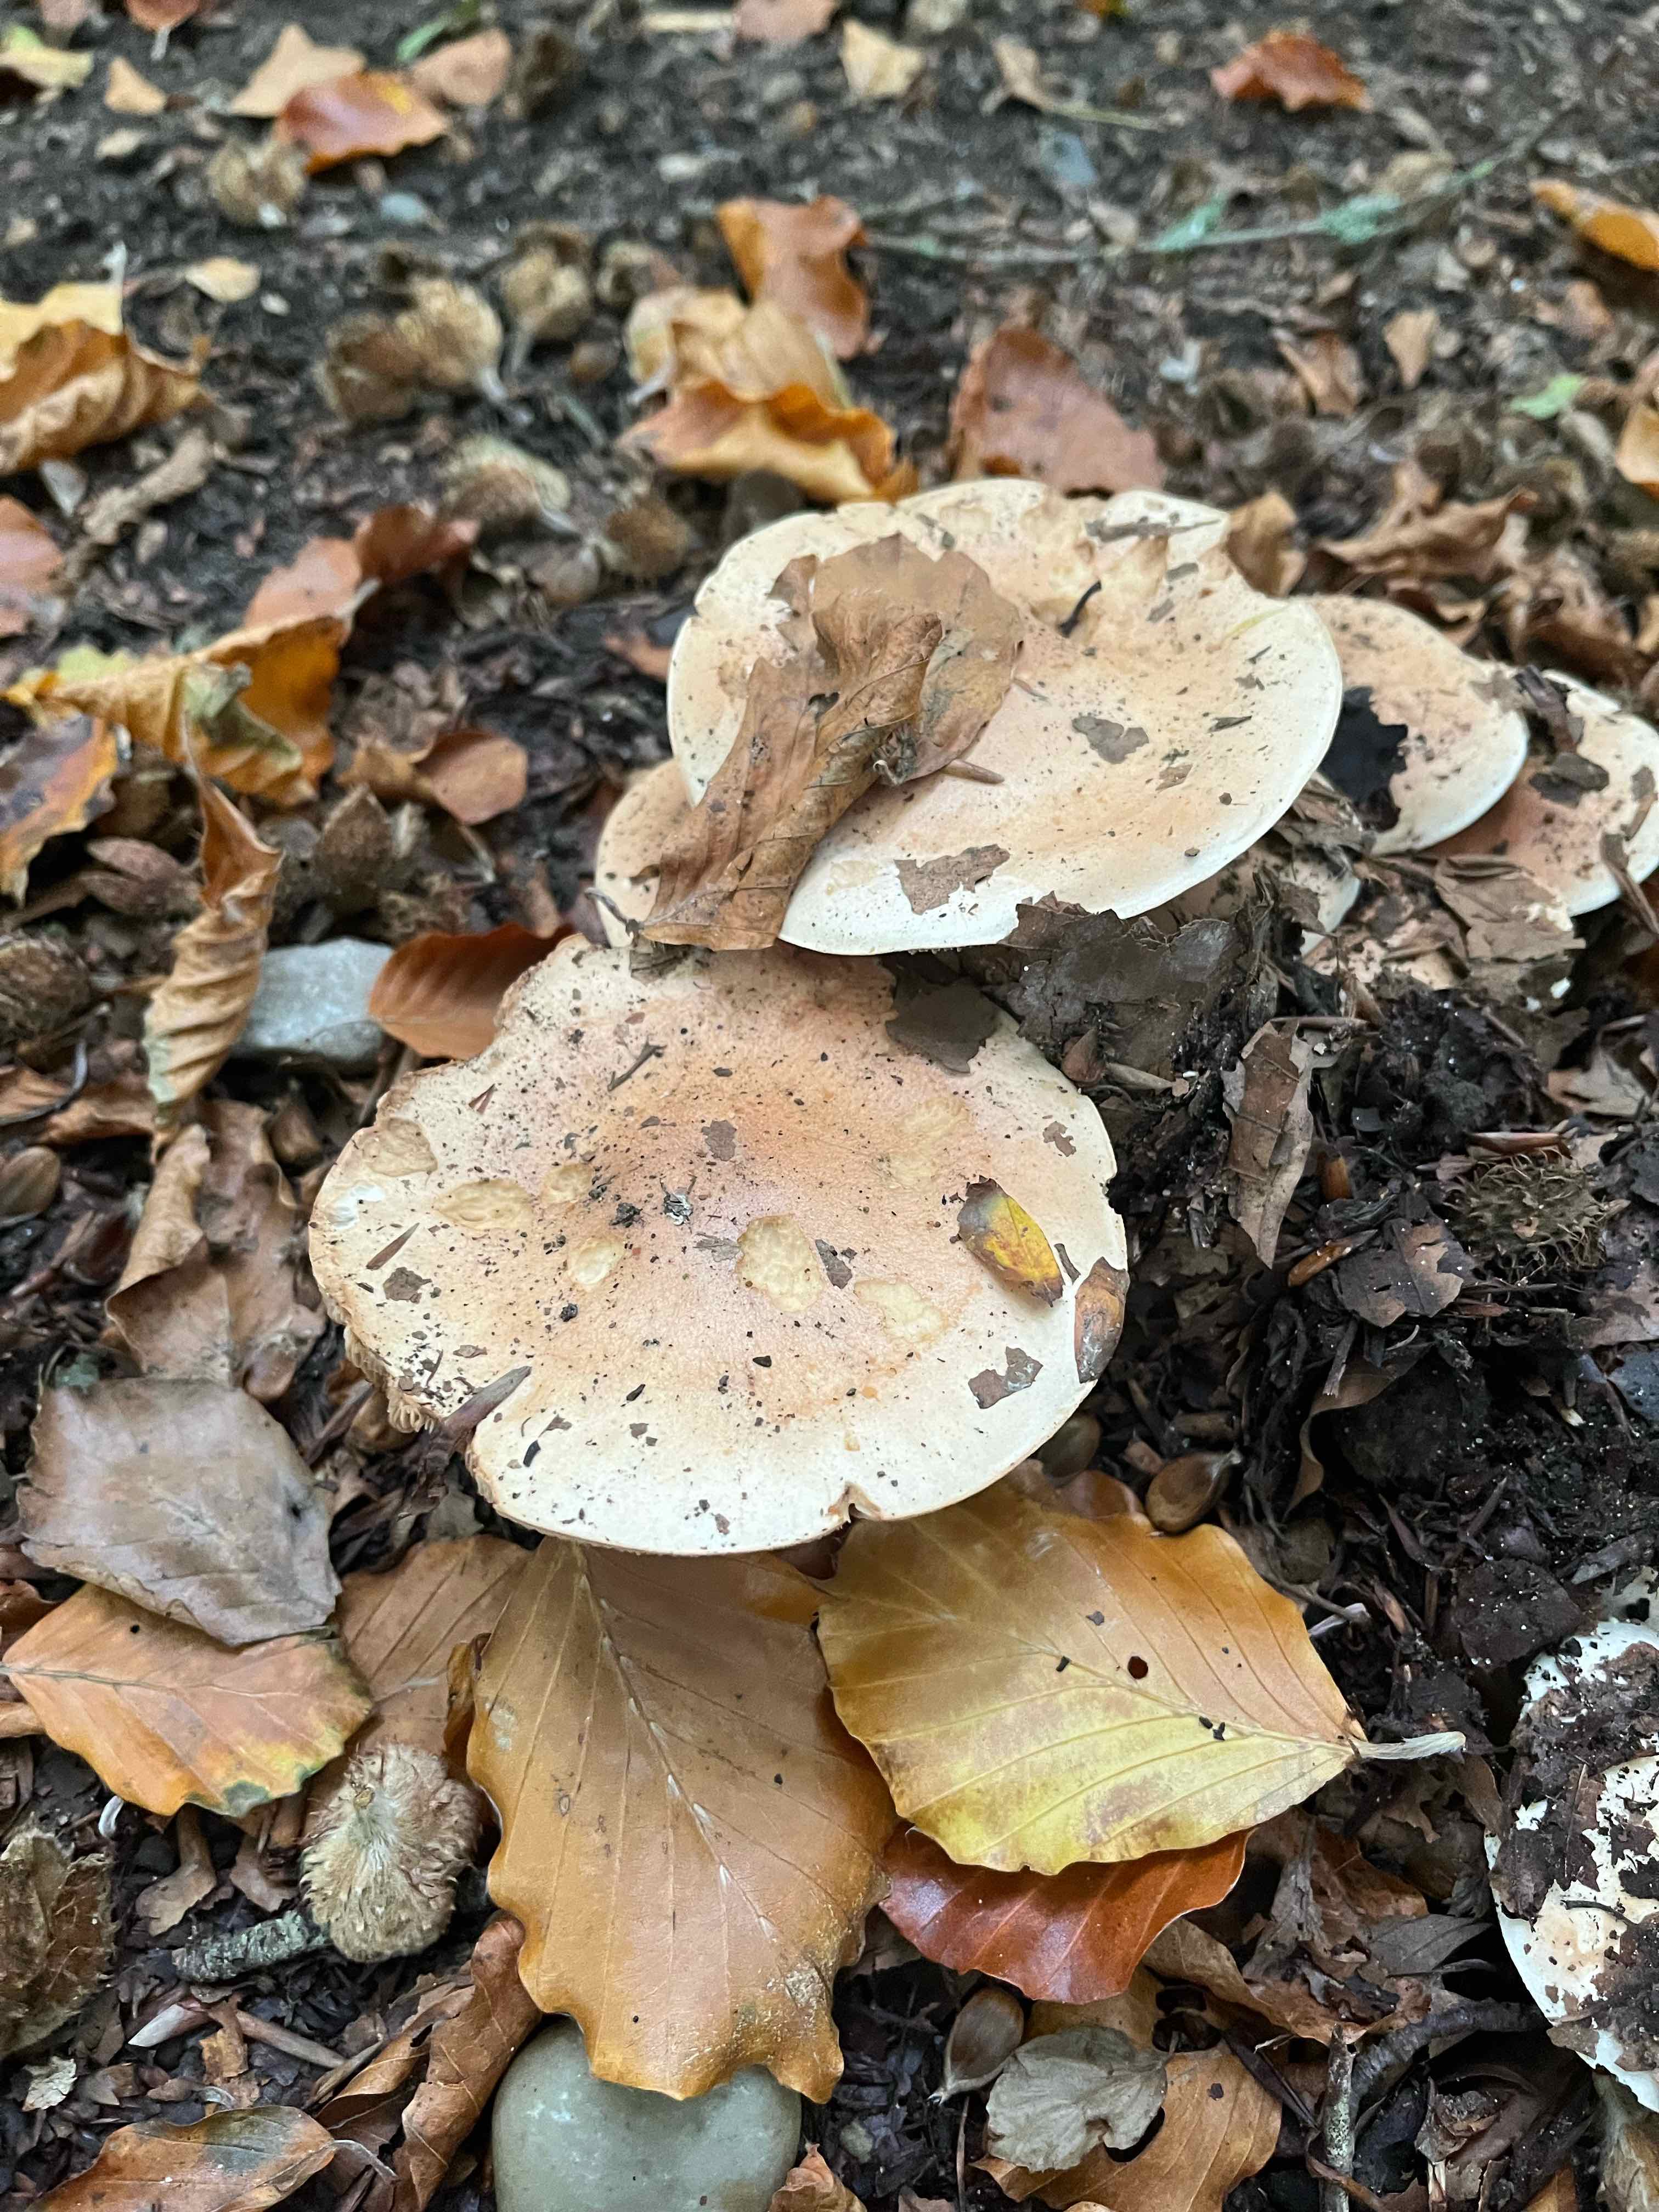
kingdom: Fungi
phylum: Basidiomycota
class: Agaricomycetes
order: Agaricales
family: Hymenogastraceae
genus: Hebeloma
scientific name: Hebeloma sinapizans
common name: ræddike-tåreblad
